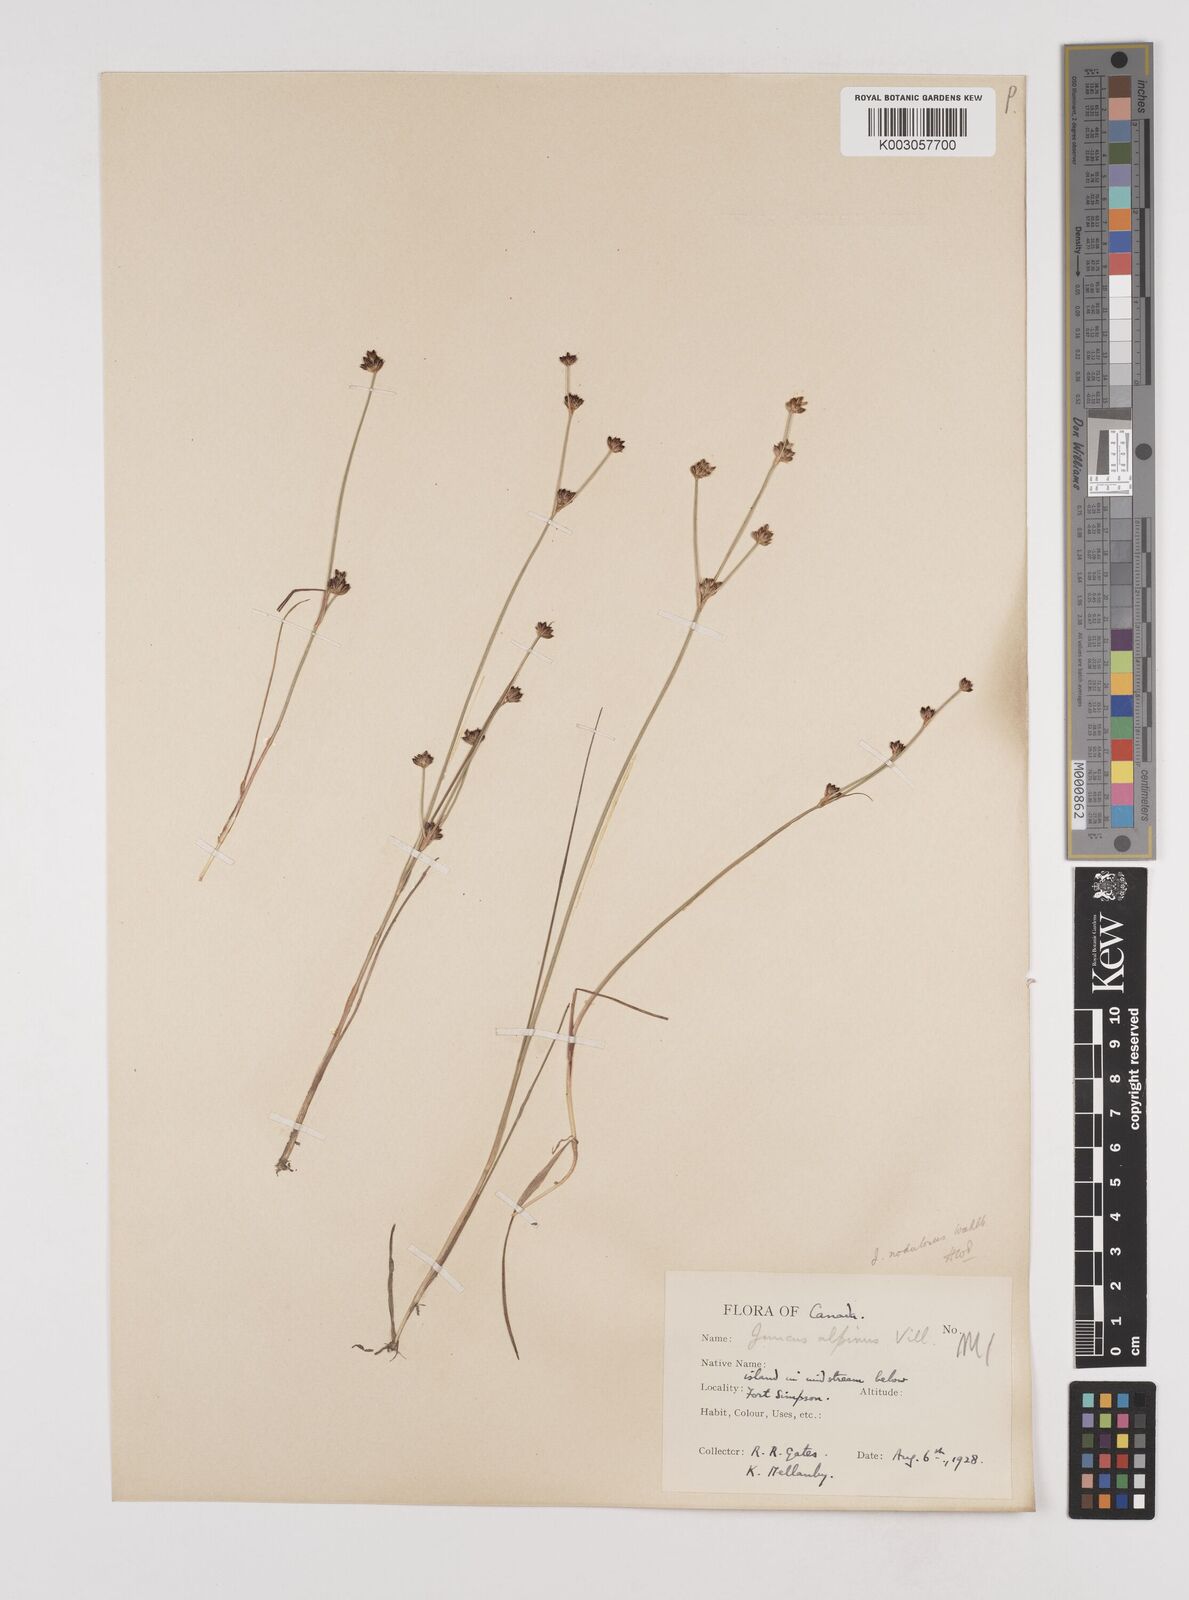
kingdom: Plantae
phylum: Tracheophyta
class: Liliopsida
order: Poales
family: Juncaceae
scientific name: Juncaceae
